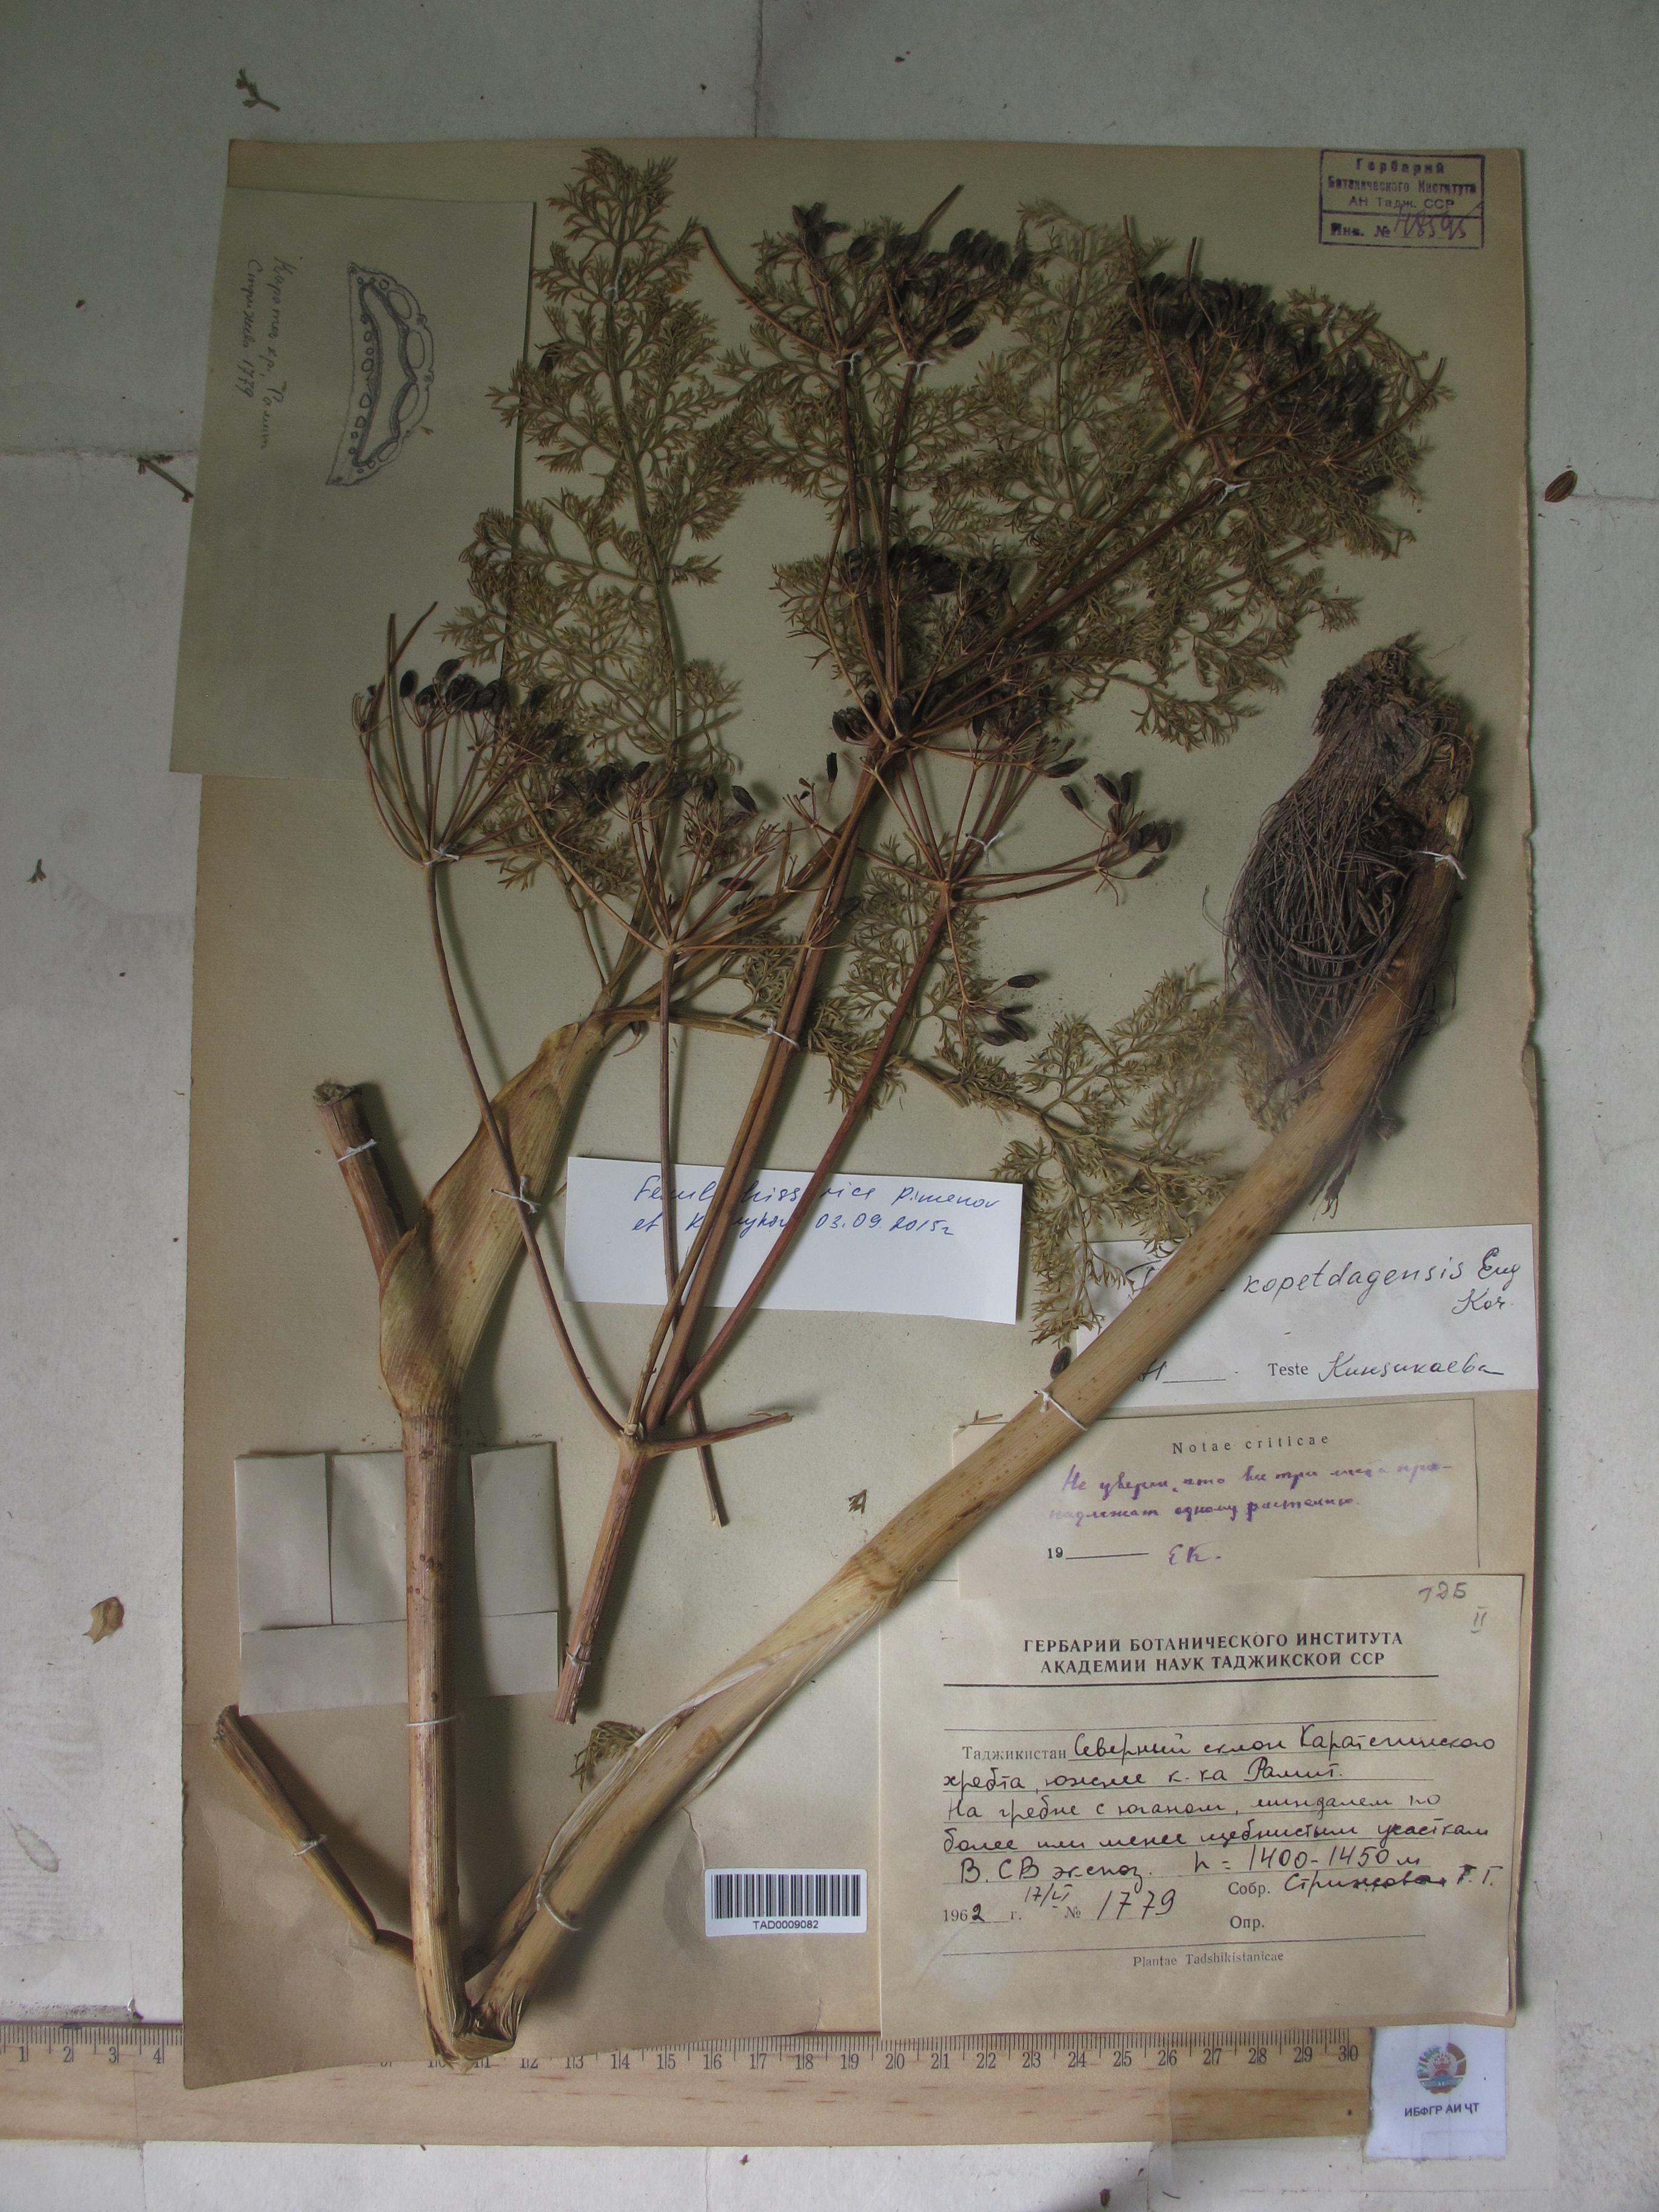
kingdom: Plantae
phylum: Tracheophyta
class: Magnoliopsida
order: Apiales
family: Apiaceae
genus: Ferula
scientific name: Ferula hissarica
